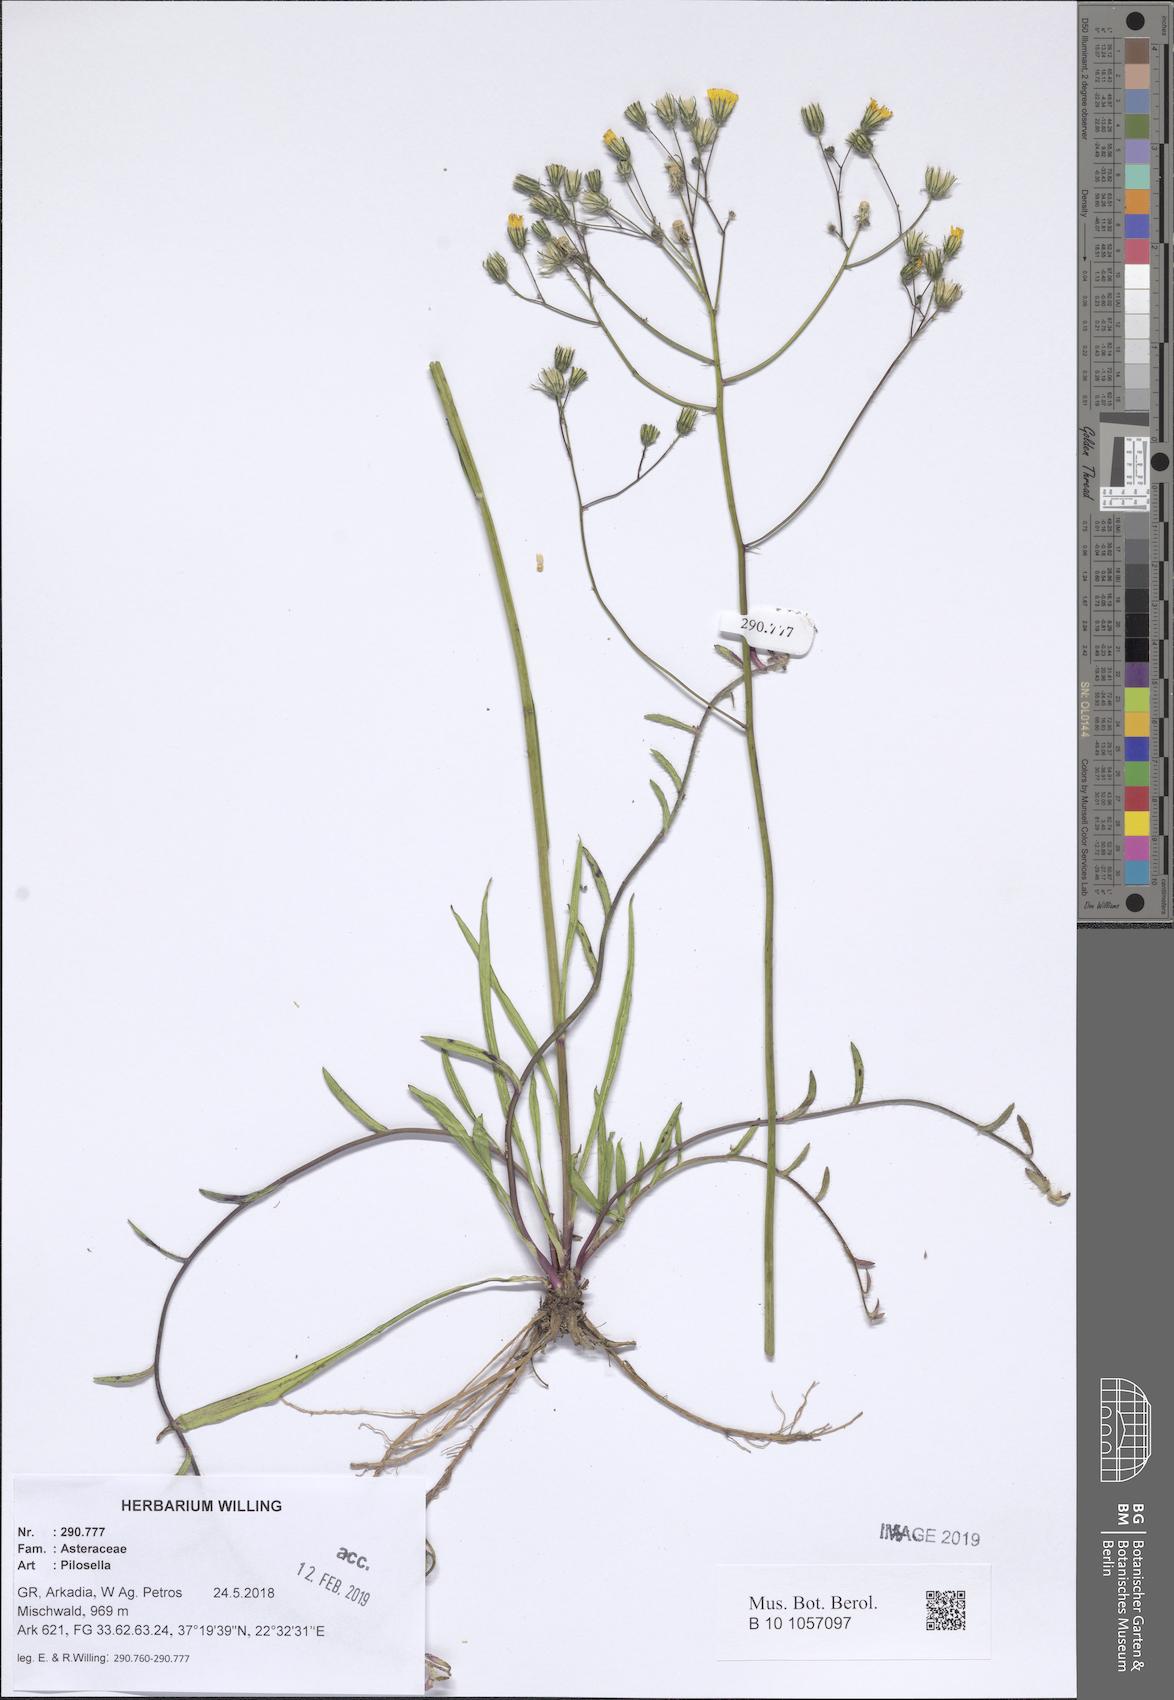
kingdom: Plantae
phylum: Tracheophyta
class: Magnoliopsida
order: Asterales
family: Asteraceae
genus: Pilosella
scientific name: Pilosella
